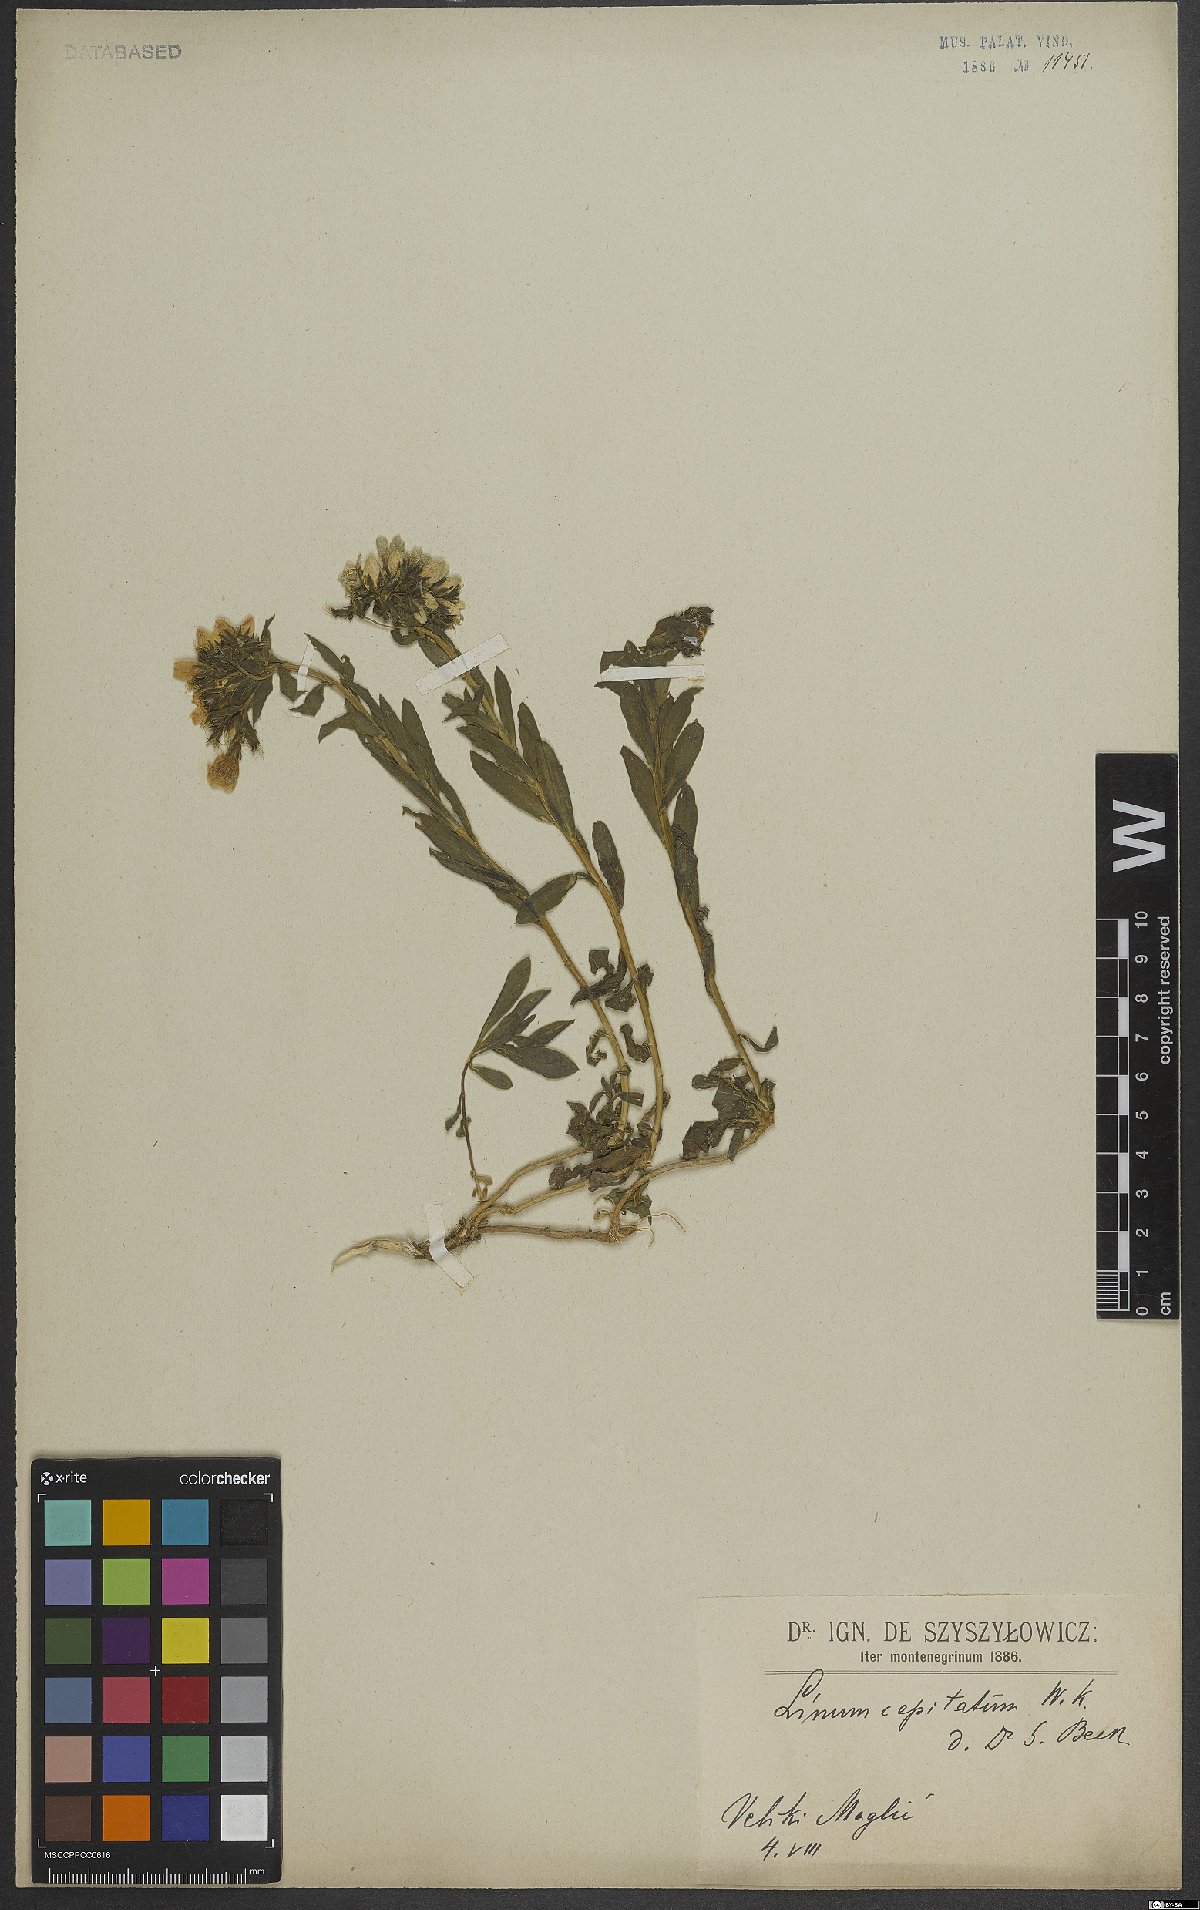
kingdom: Plantae
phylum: Tracheophyta
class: Magnoliopsida
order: Malpighiales
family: Linaceae
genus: Linum
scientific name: Linum capitatum
